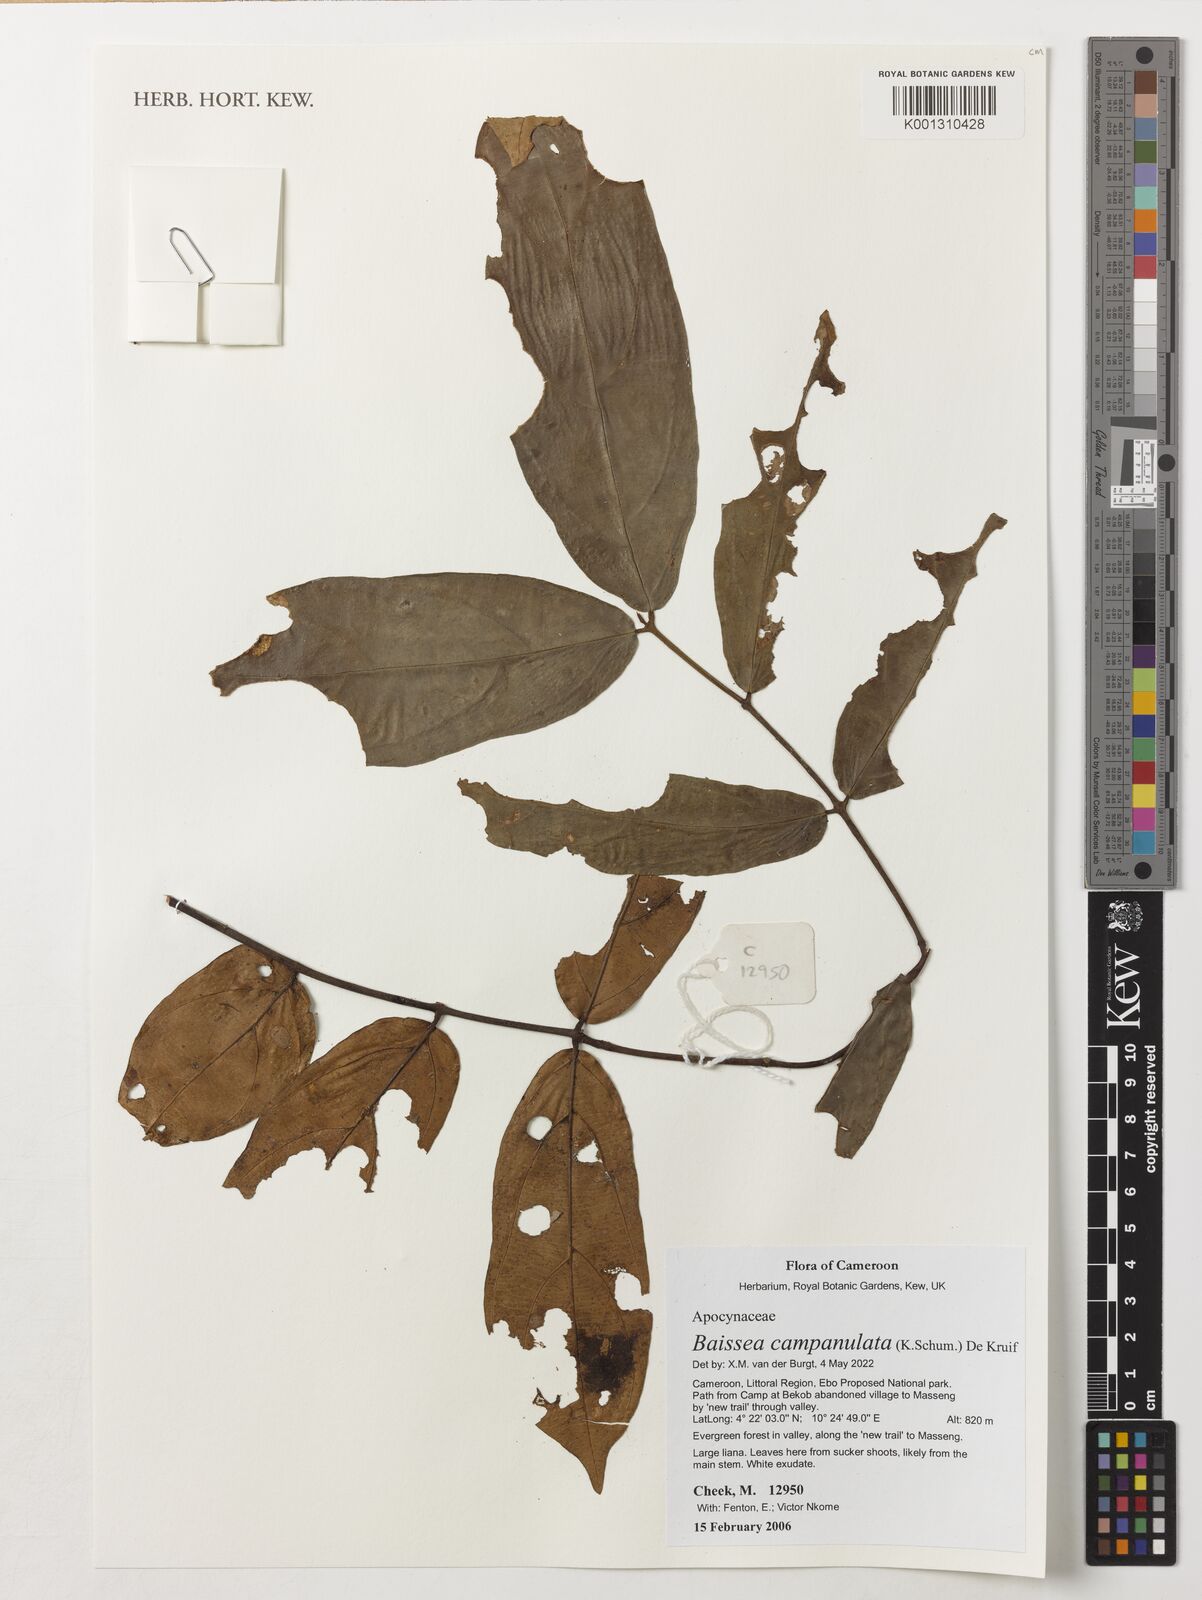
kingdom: Plantae
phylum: Tracheophyta
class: Magnoliopsida
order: Gentianales
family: Apocynaceae
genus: Baissea
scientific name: Baissea campanulata
